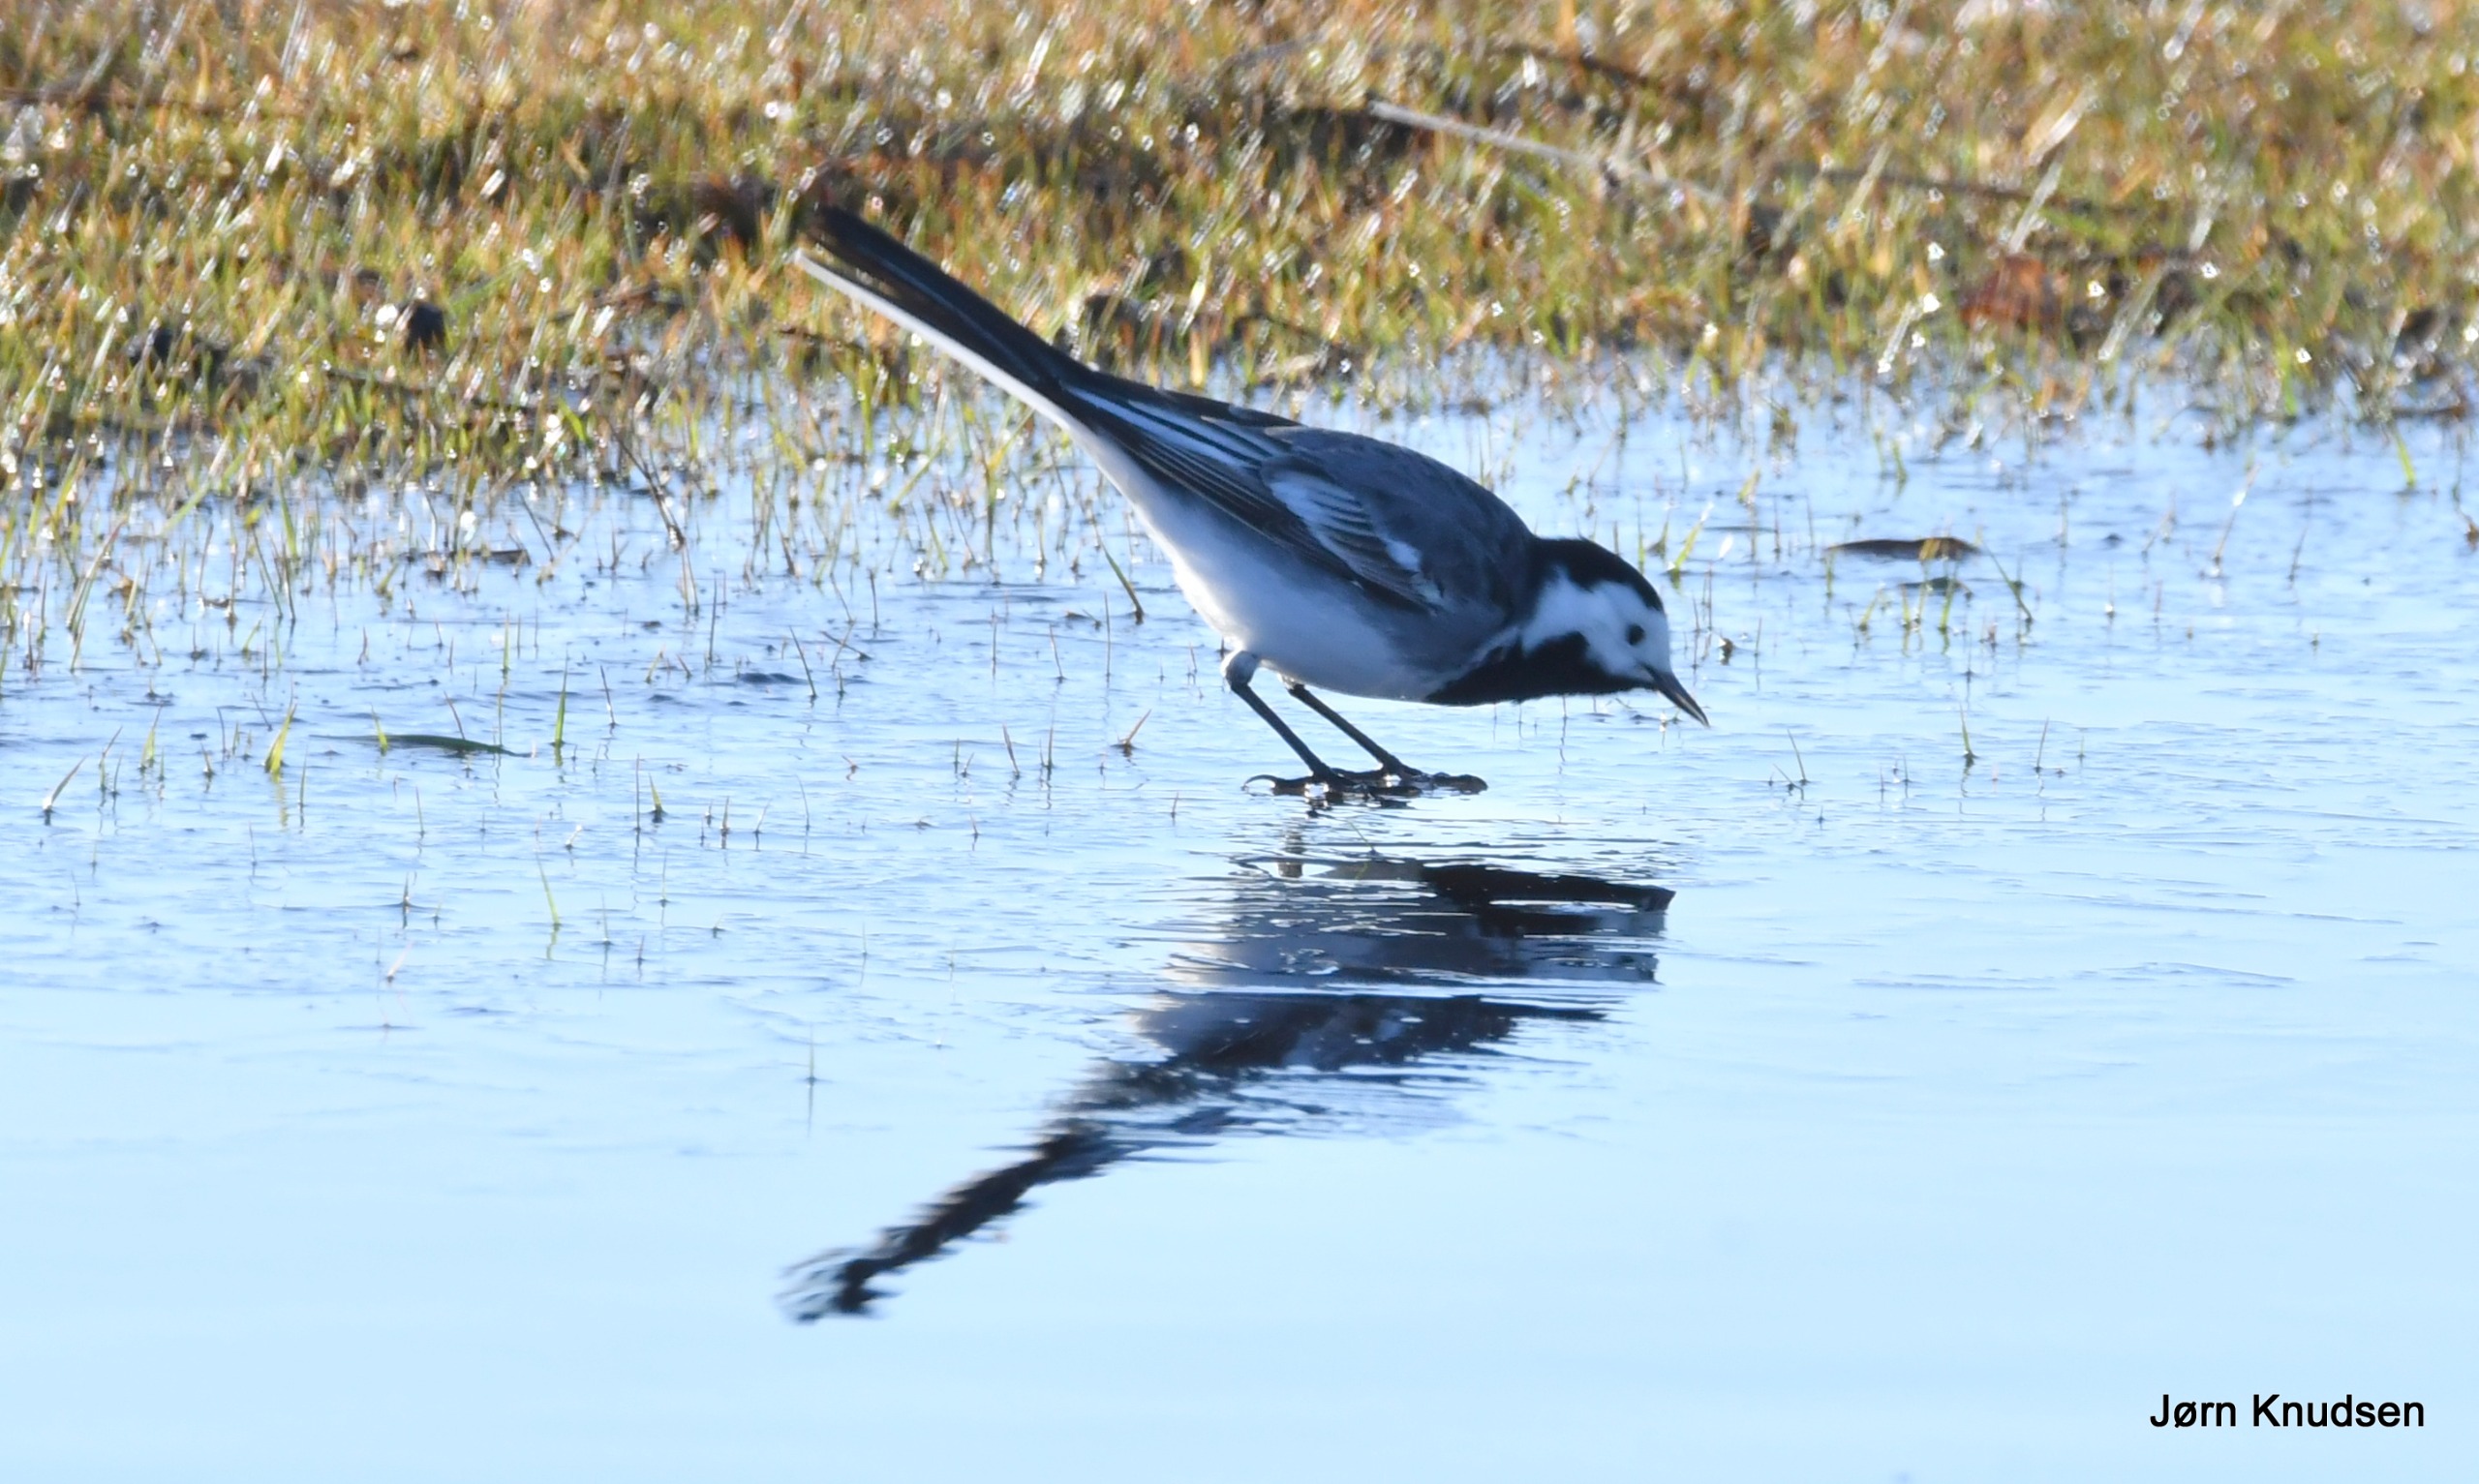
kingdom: Animalia
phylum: Chordata
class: Aves
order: Passeriformes
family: Motacillidae
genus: Motacilla
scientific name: Motacilla alba
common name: Hvid vipstjert
